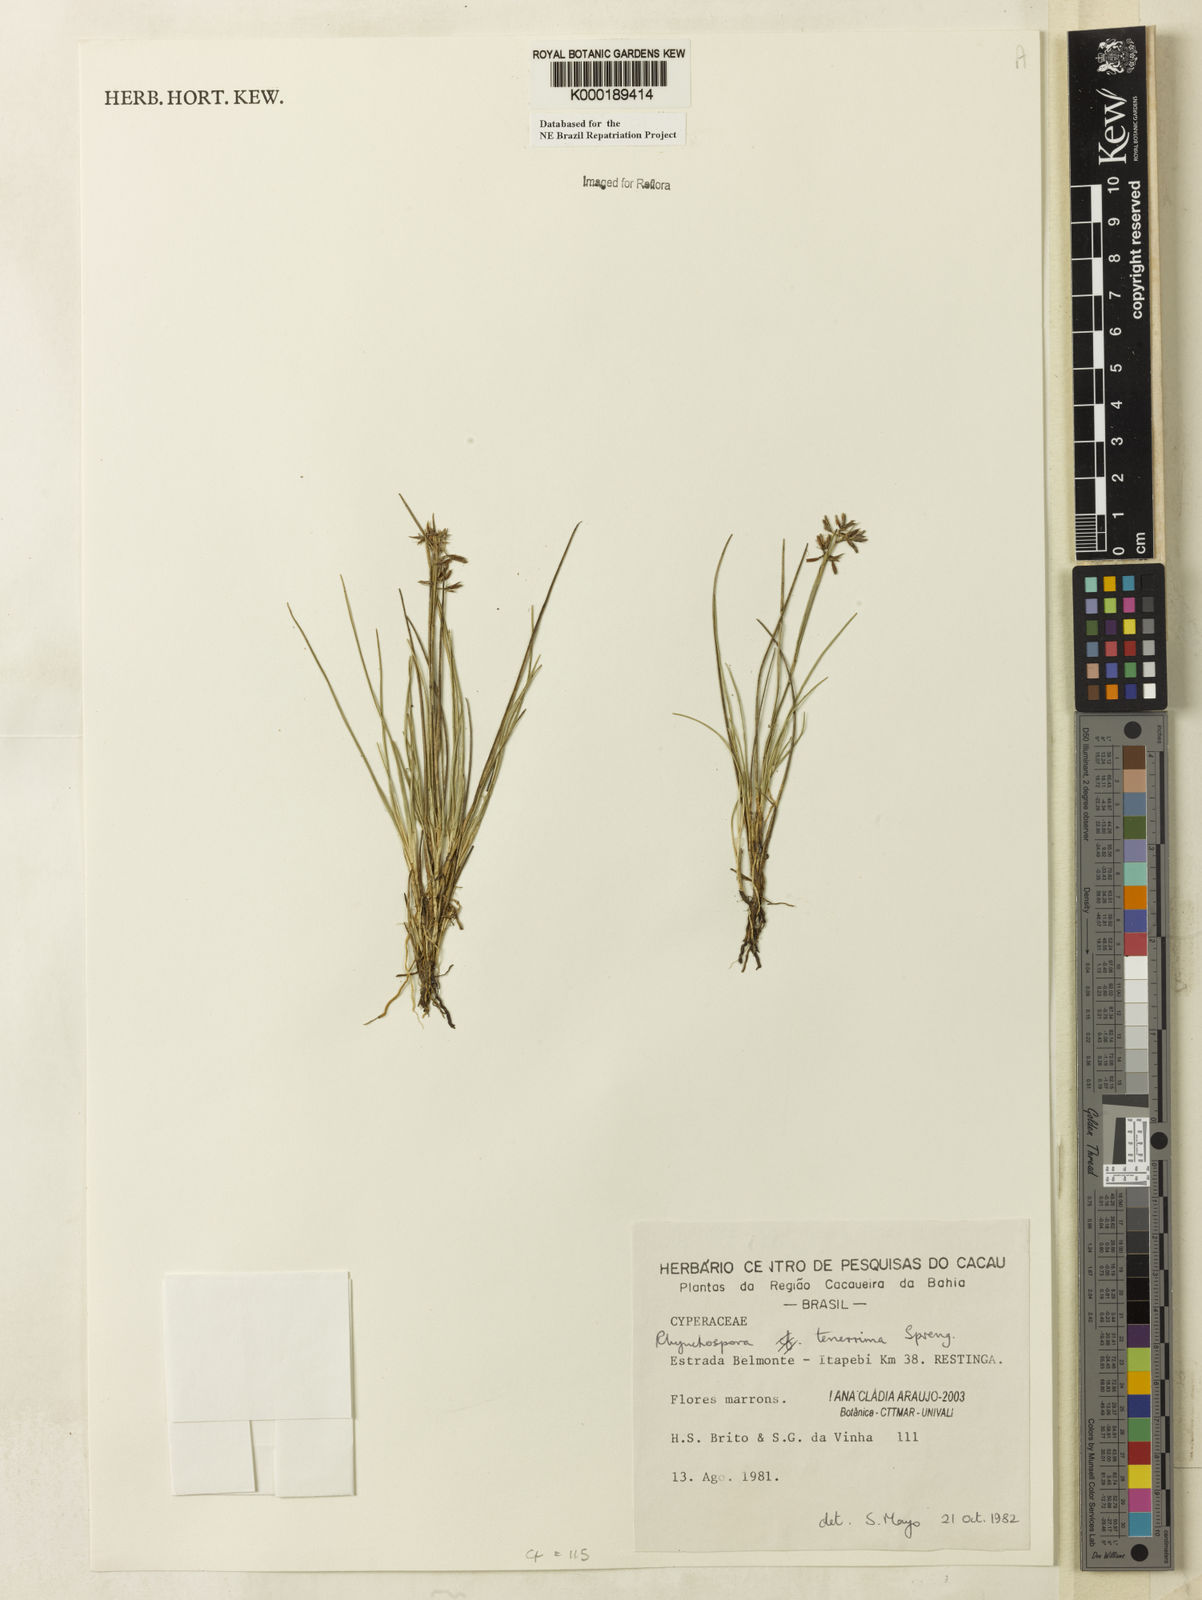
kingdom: Plantae
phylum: Tracheophyta
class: Liliopsida
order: Poales
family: Cyperaceae
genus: Rhynchospora
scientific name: Rhynchospora tenerrima
